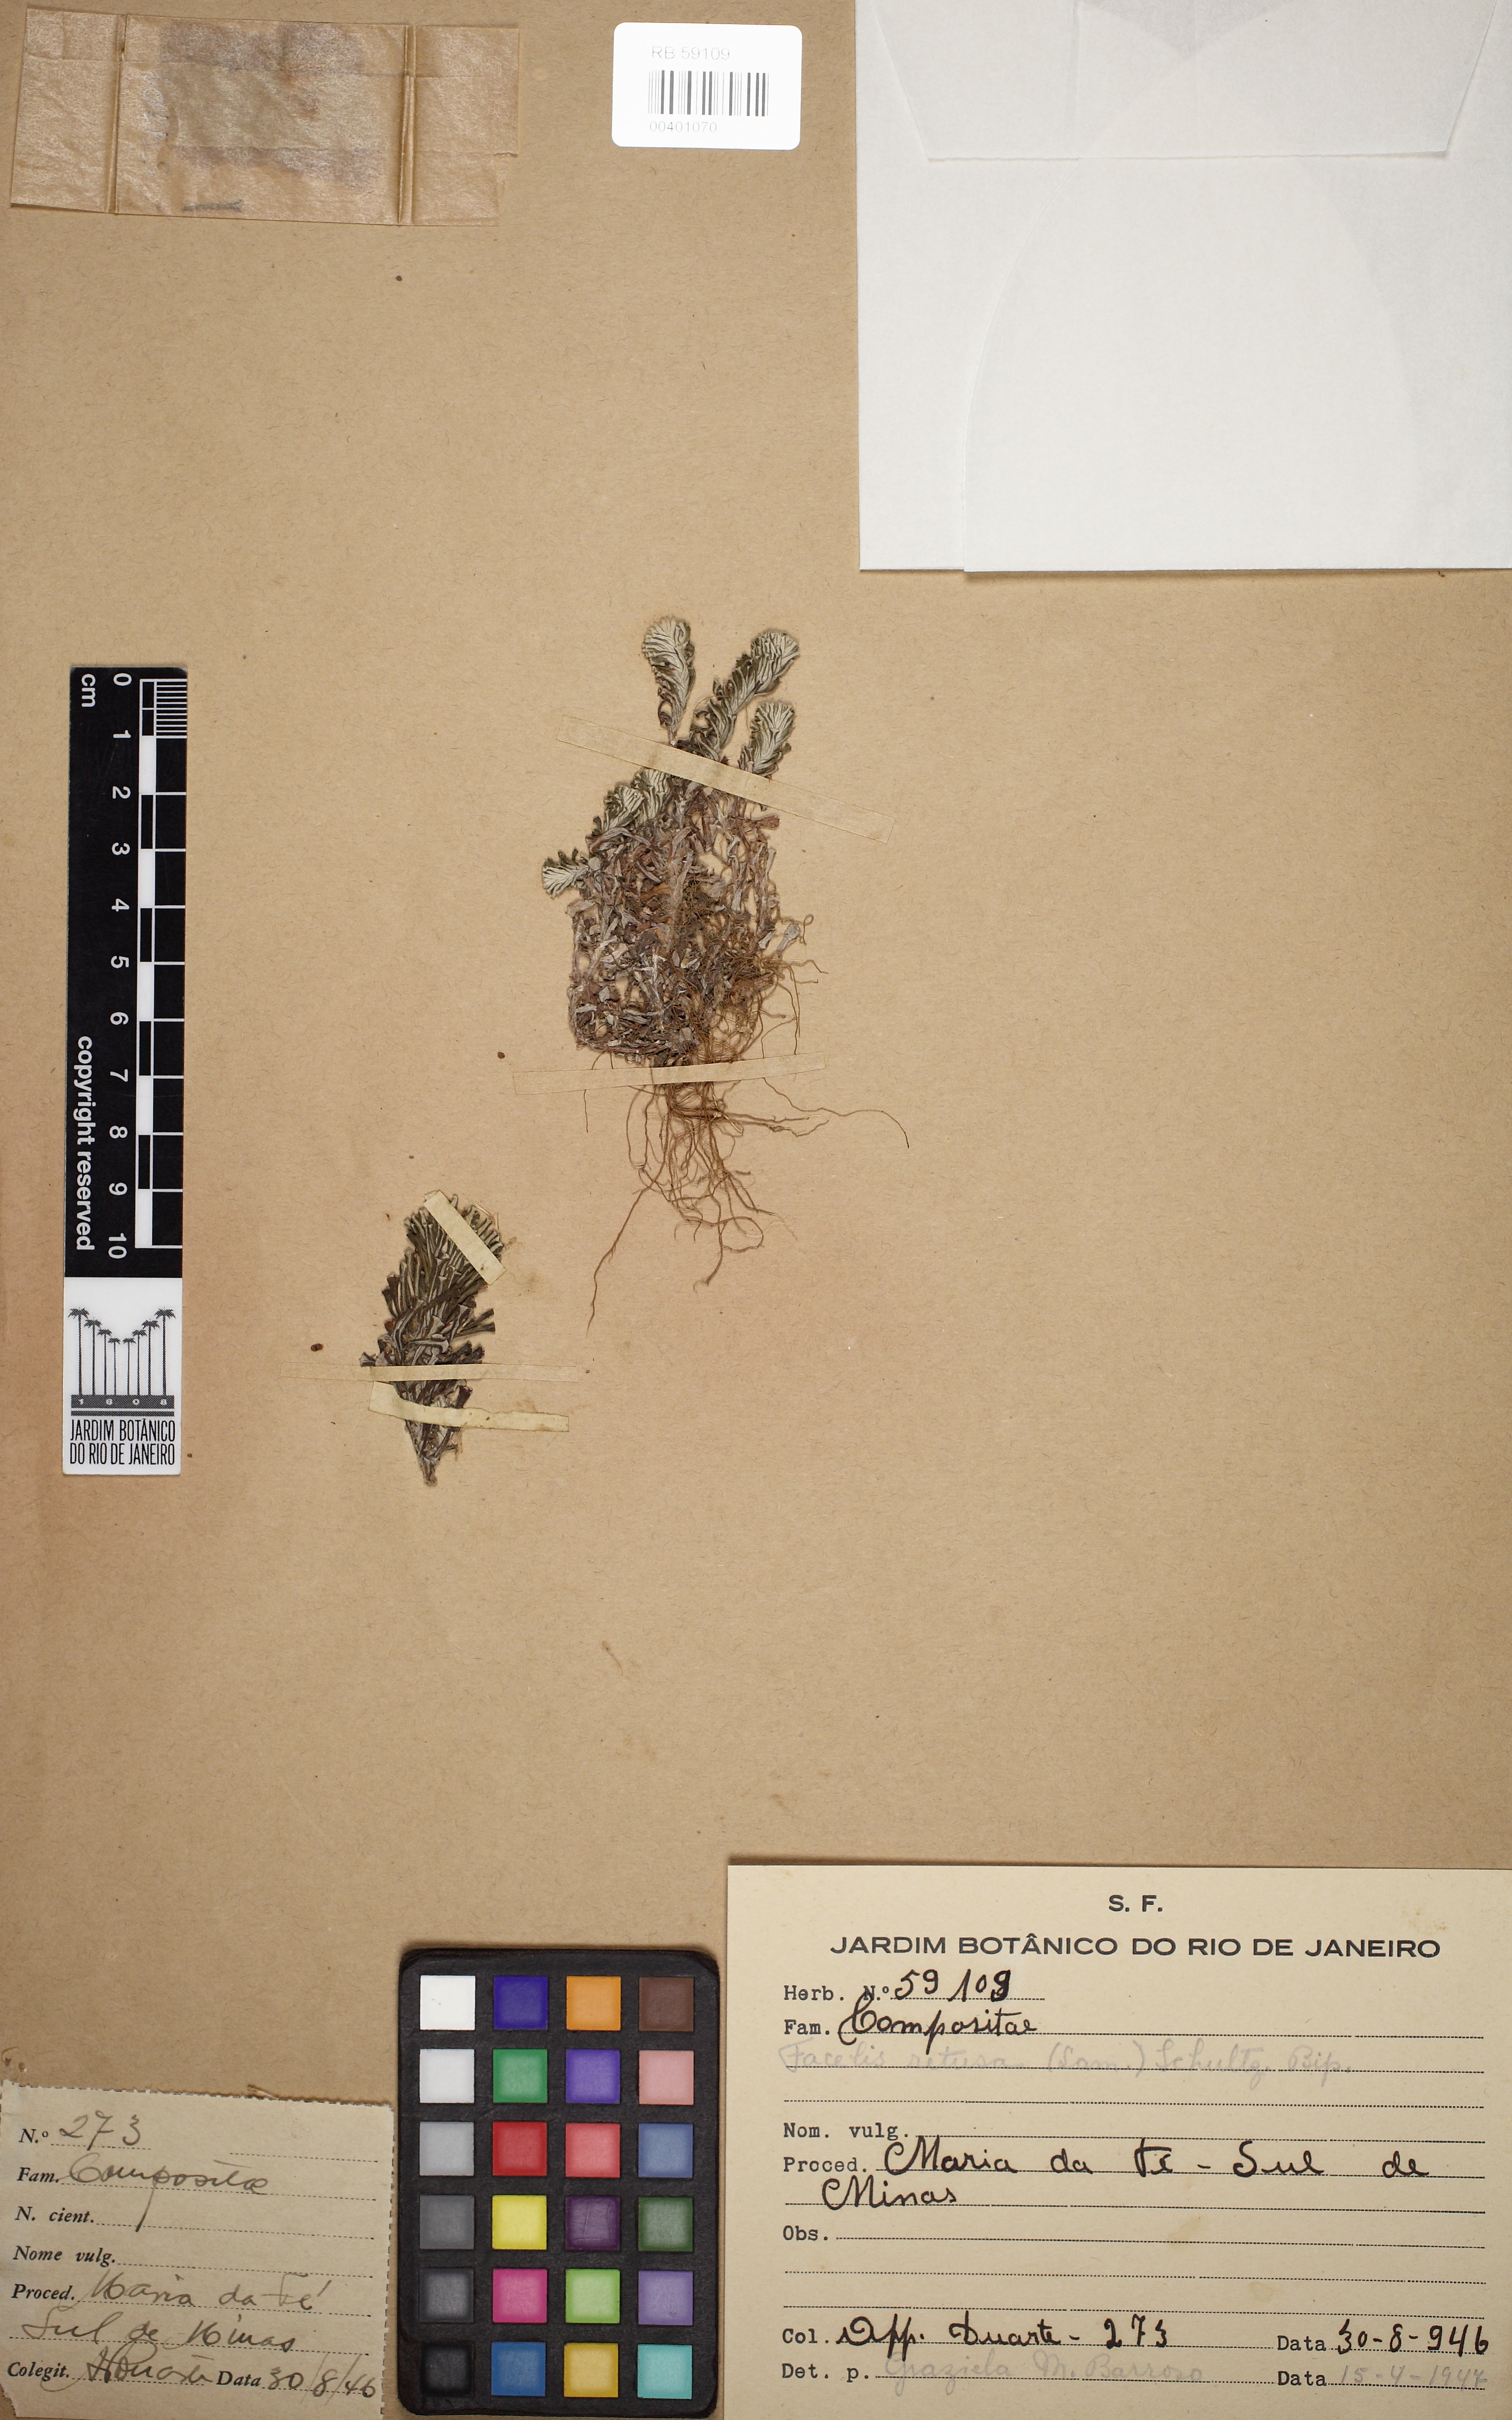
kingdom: Plantae
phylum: Tracheophyta
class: Magnoliopsida
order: Asterales
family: Asteraceae
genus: Facelis
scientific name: Facelis retusa
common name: Annual trampweed
